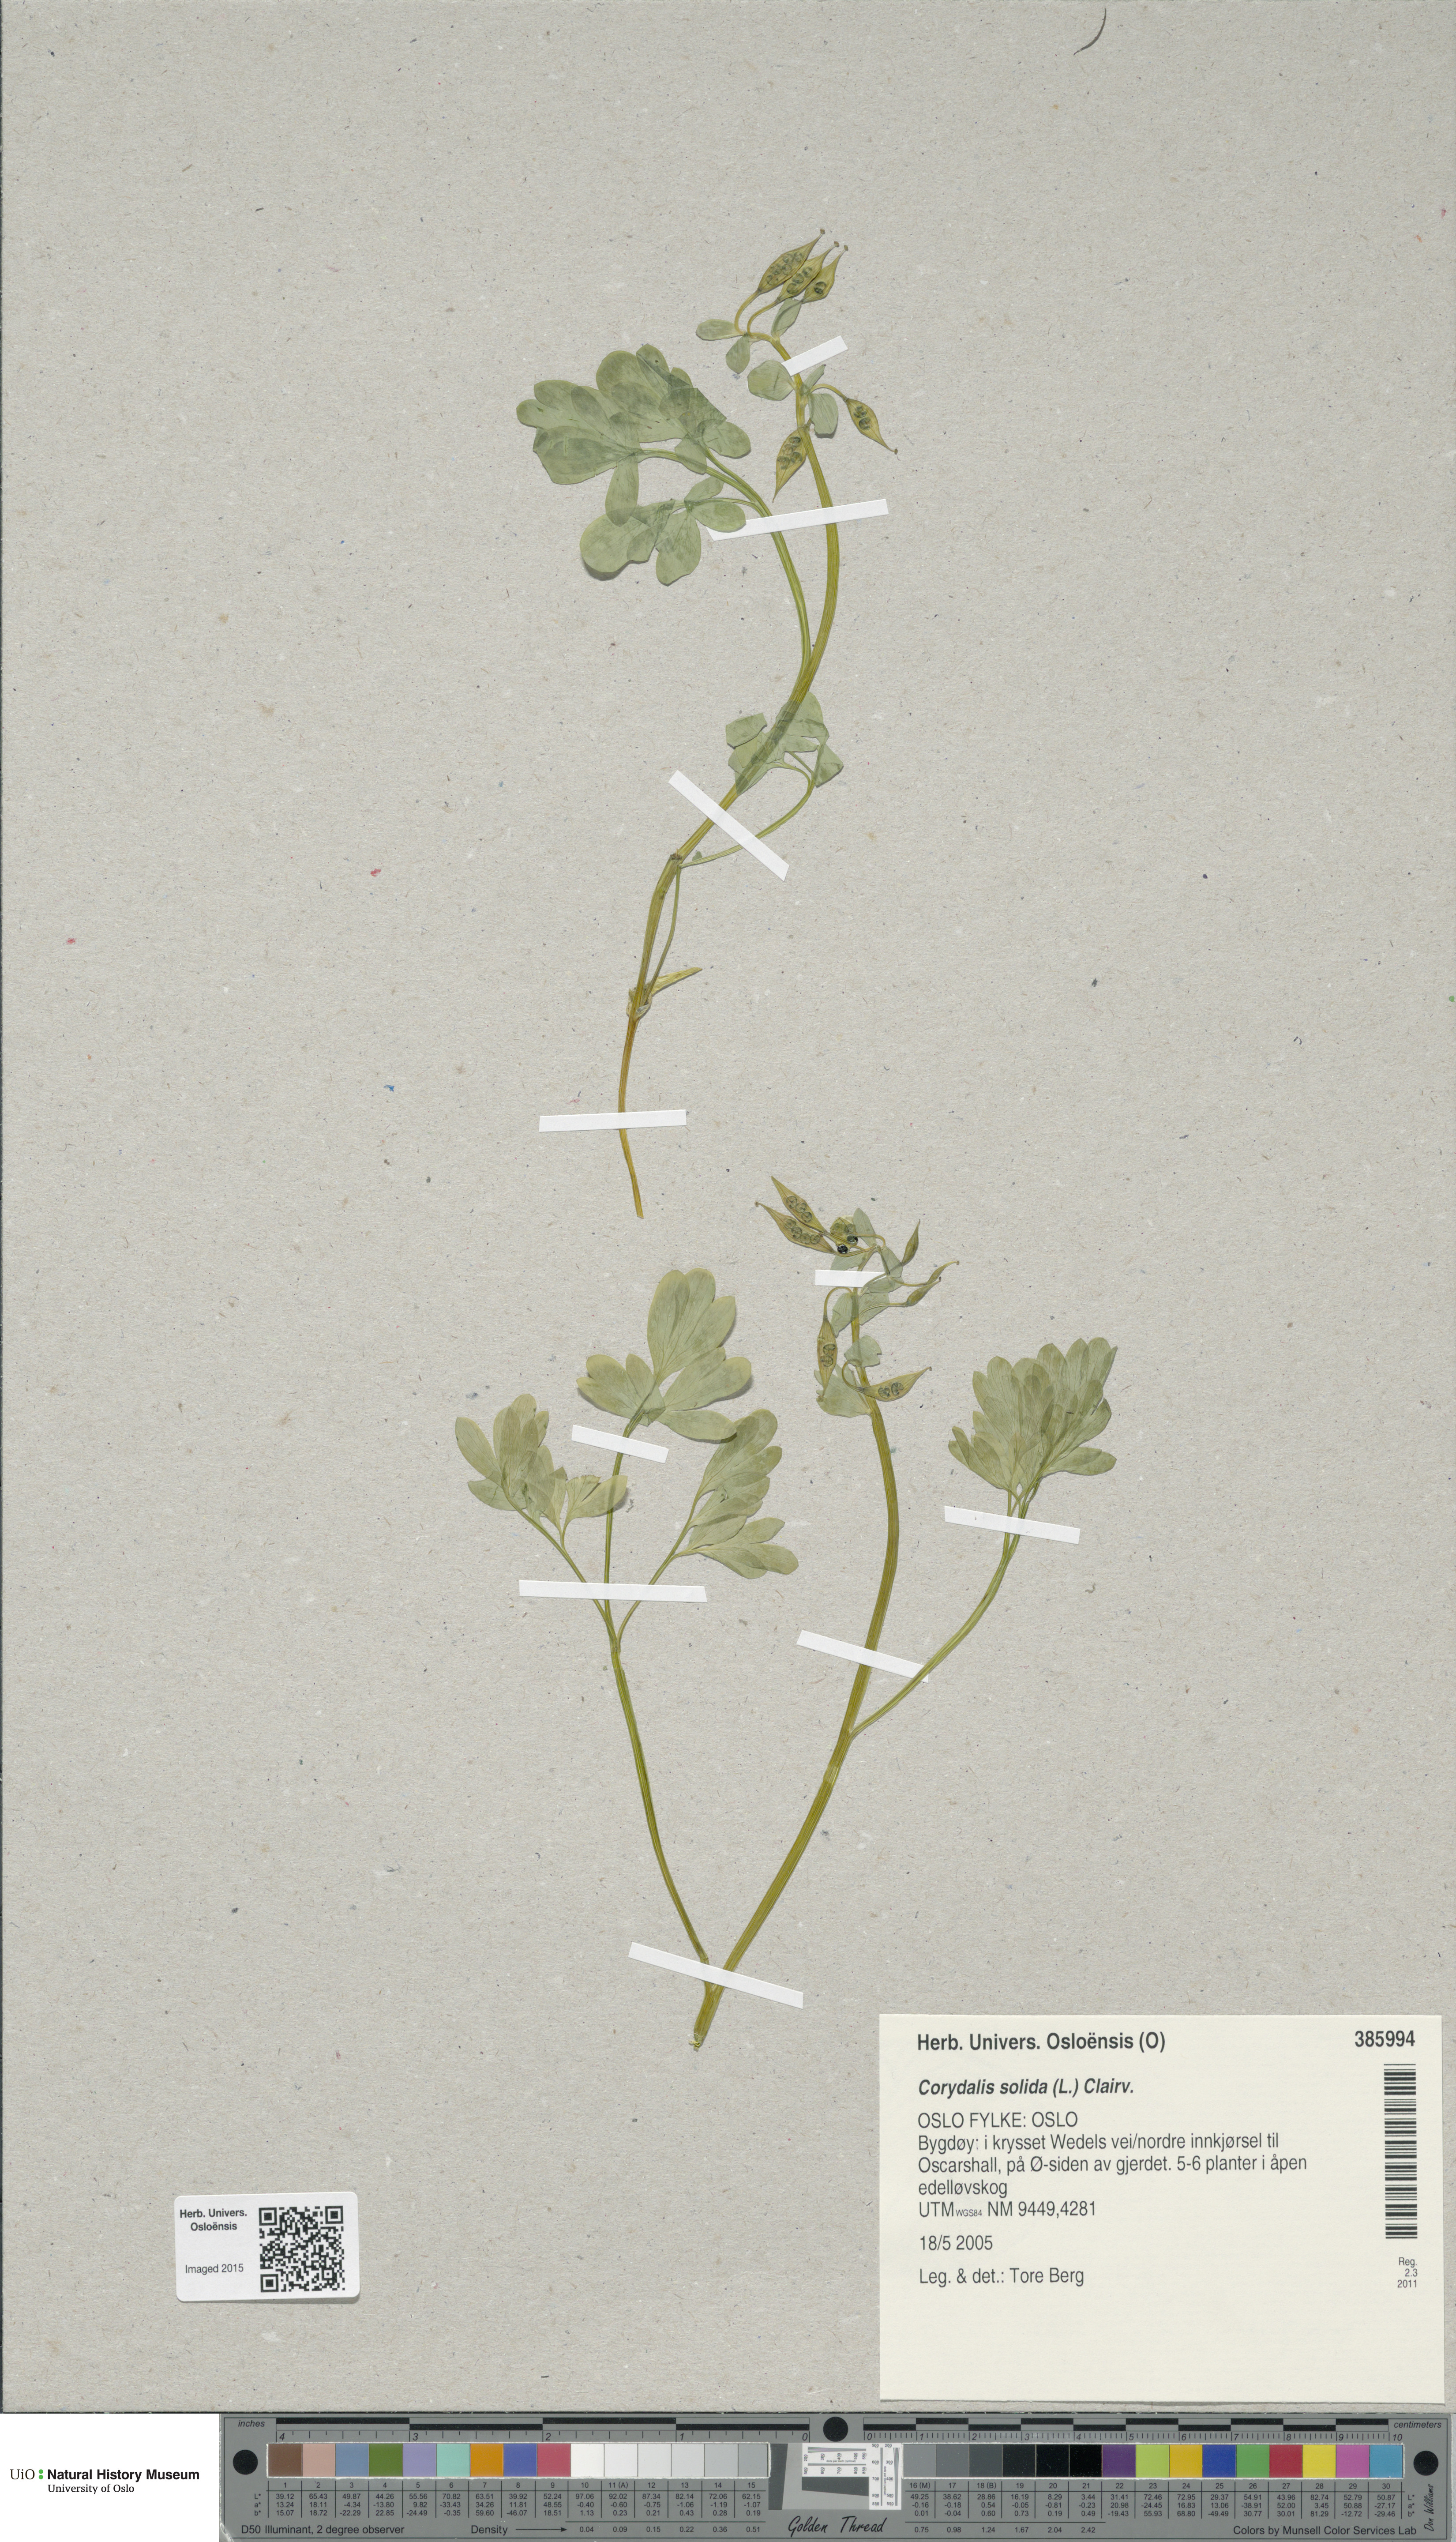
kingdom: Plantae
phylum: Tracheophyta
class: Magnoliopsida
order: Ranunculales
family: Papaveraceae
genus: Corydalis
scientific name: Corydalis solida
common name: Bird-in-a-bush
